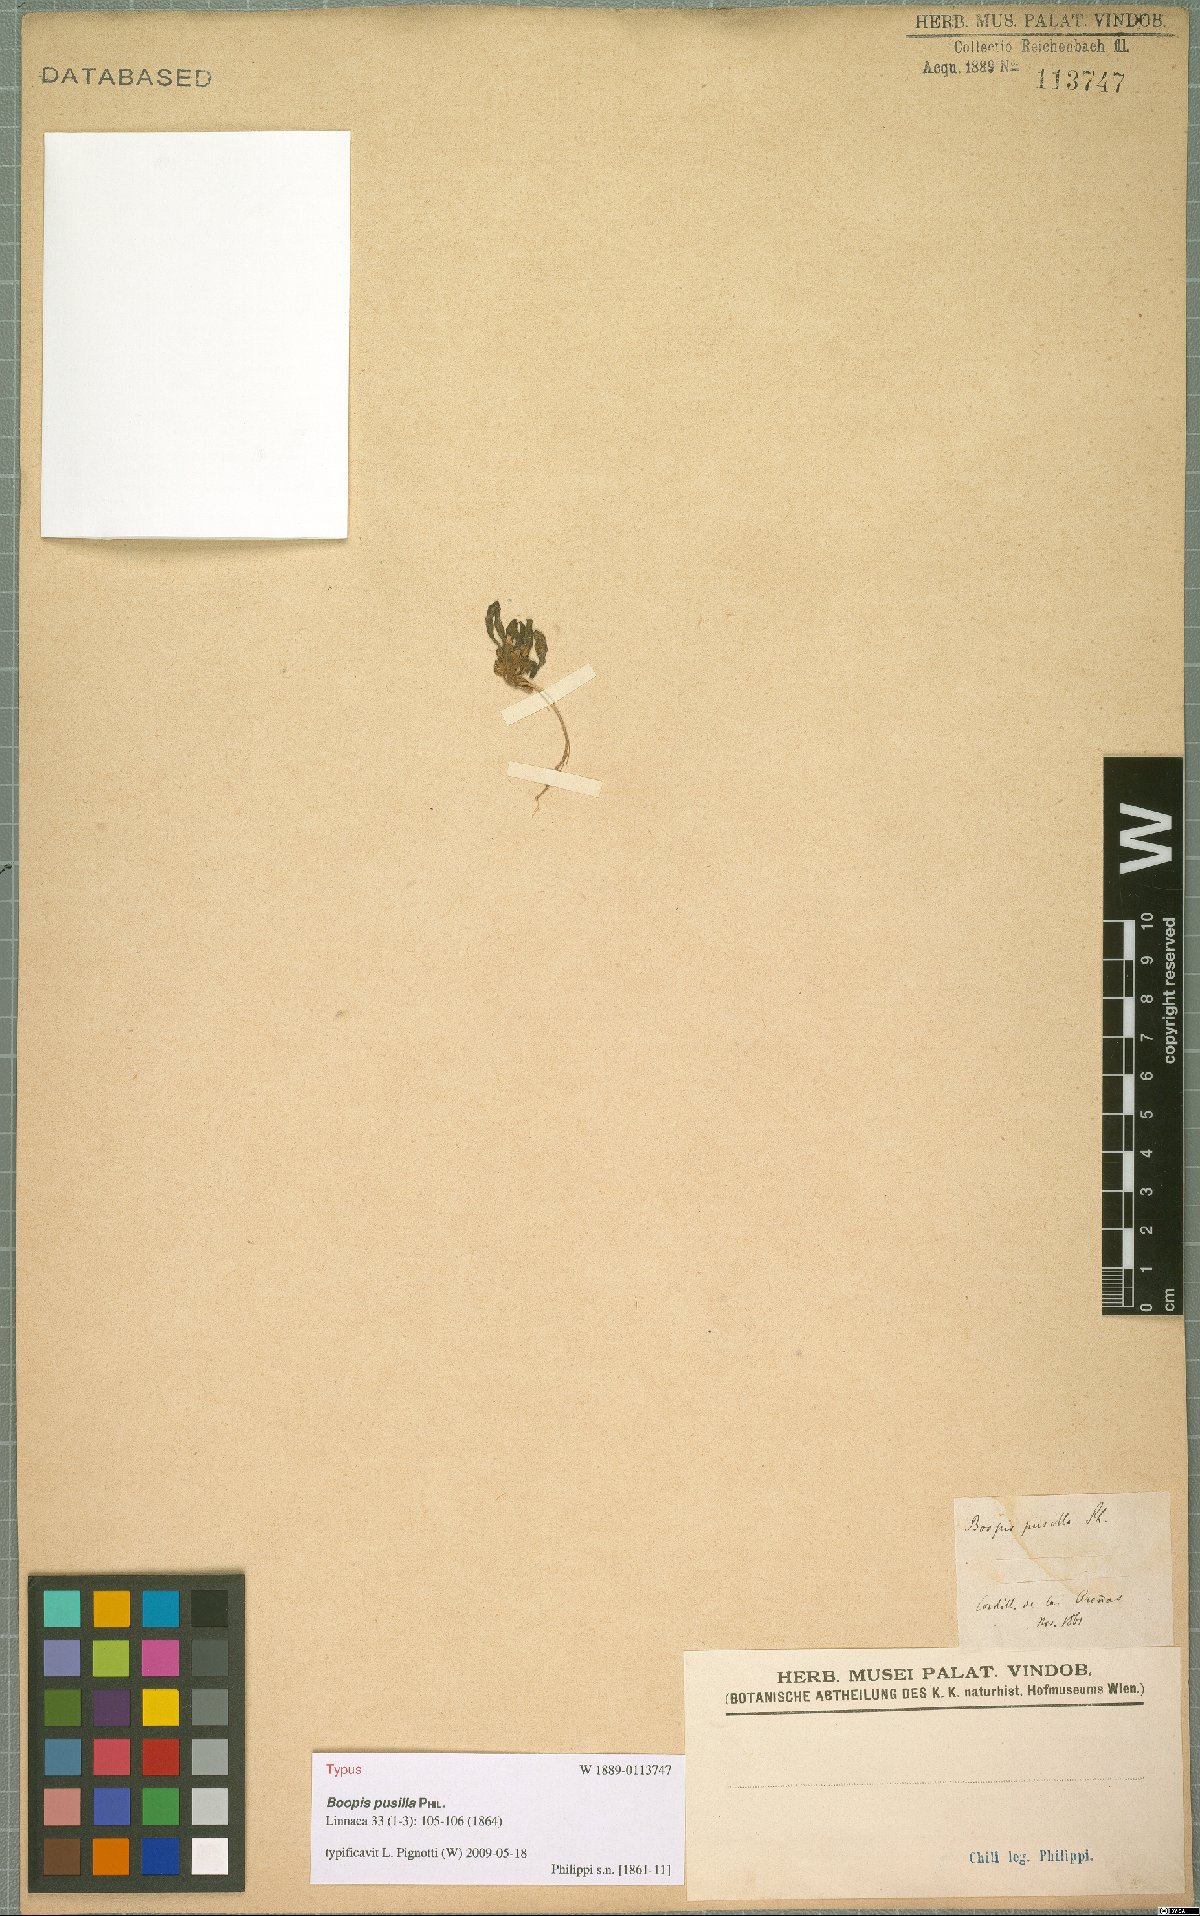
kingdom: Plantae
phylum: Tracheophyta
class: Magnoliopsida
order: Asterales
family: Calyceraceae
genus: Leucocera
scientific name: Leucocera pusilla
